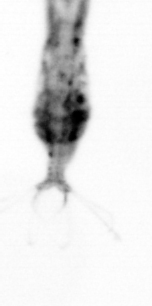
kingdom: Animalia
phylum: Arthropoda
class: Copepoda
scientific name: Copepoda
